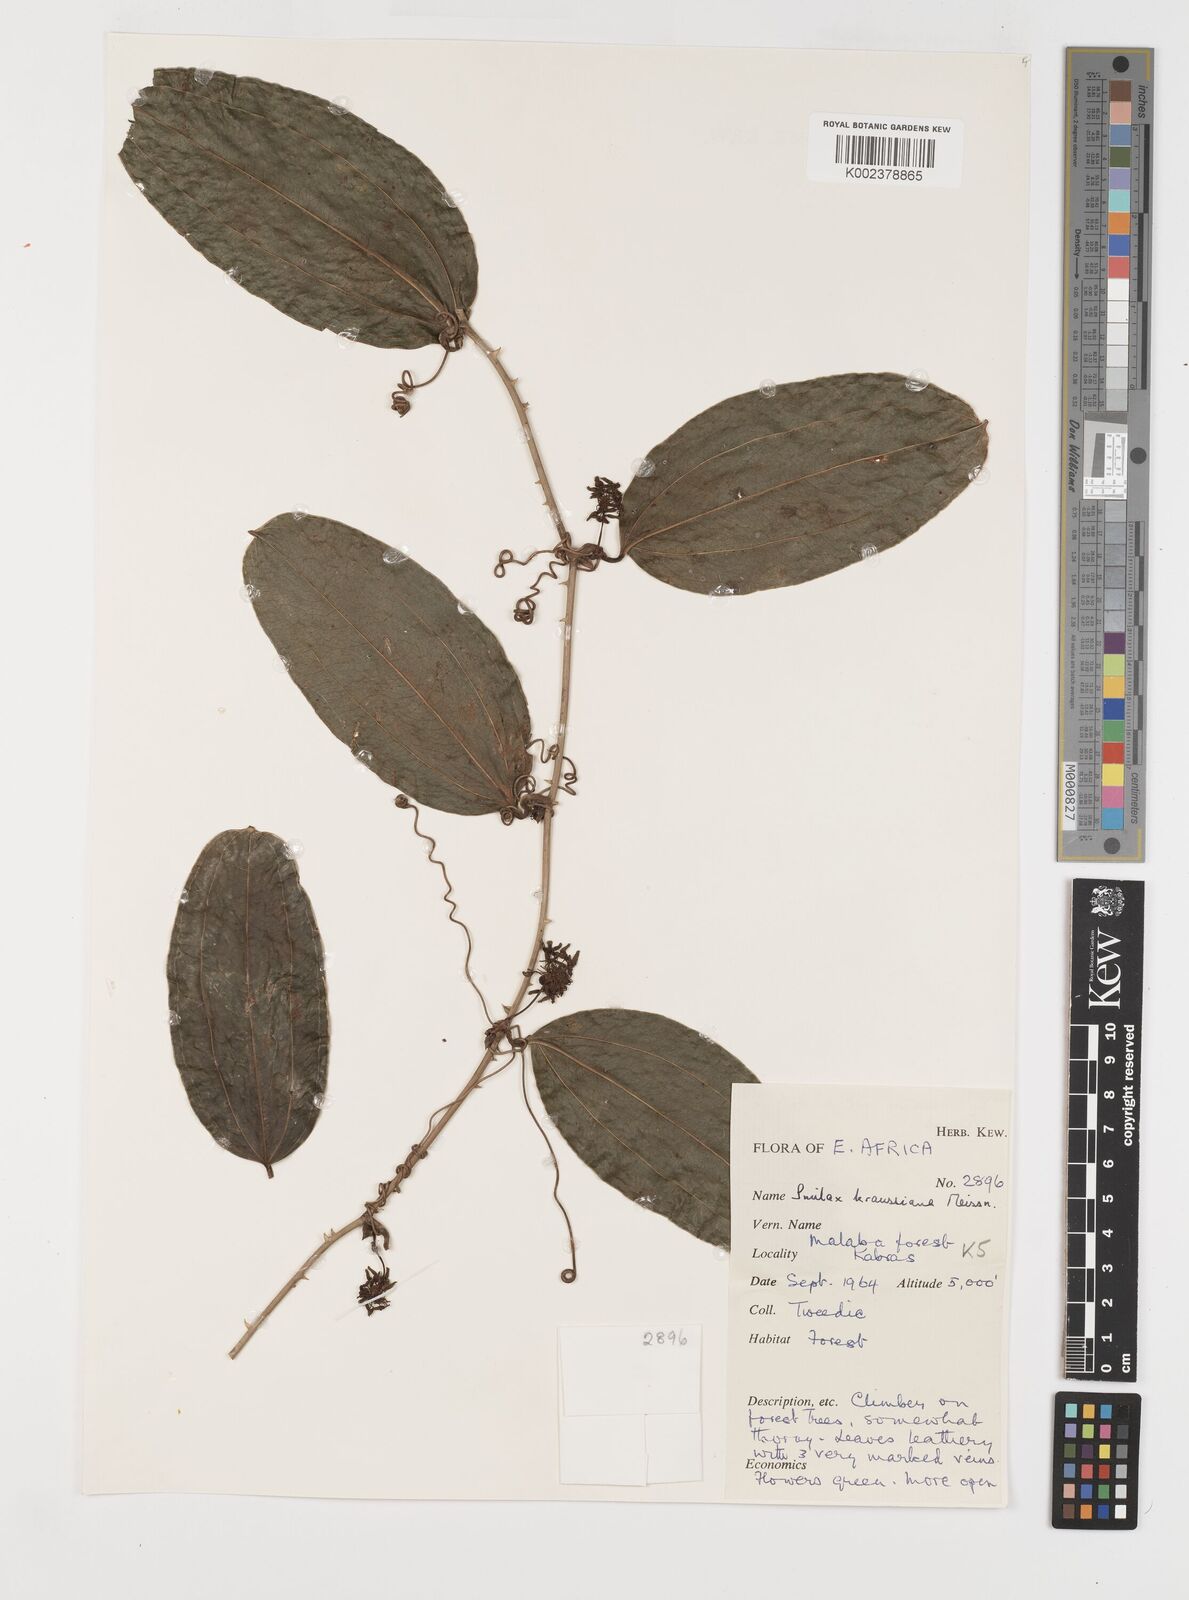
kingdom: Plantae
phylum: Tracheophyta
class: Liliopsida
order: Liliales
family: Smilacaceae
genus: Smilax
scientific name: Smilax anceps
